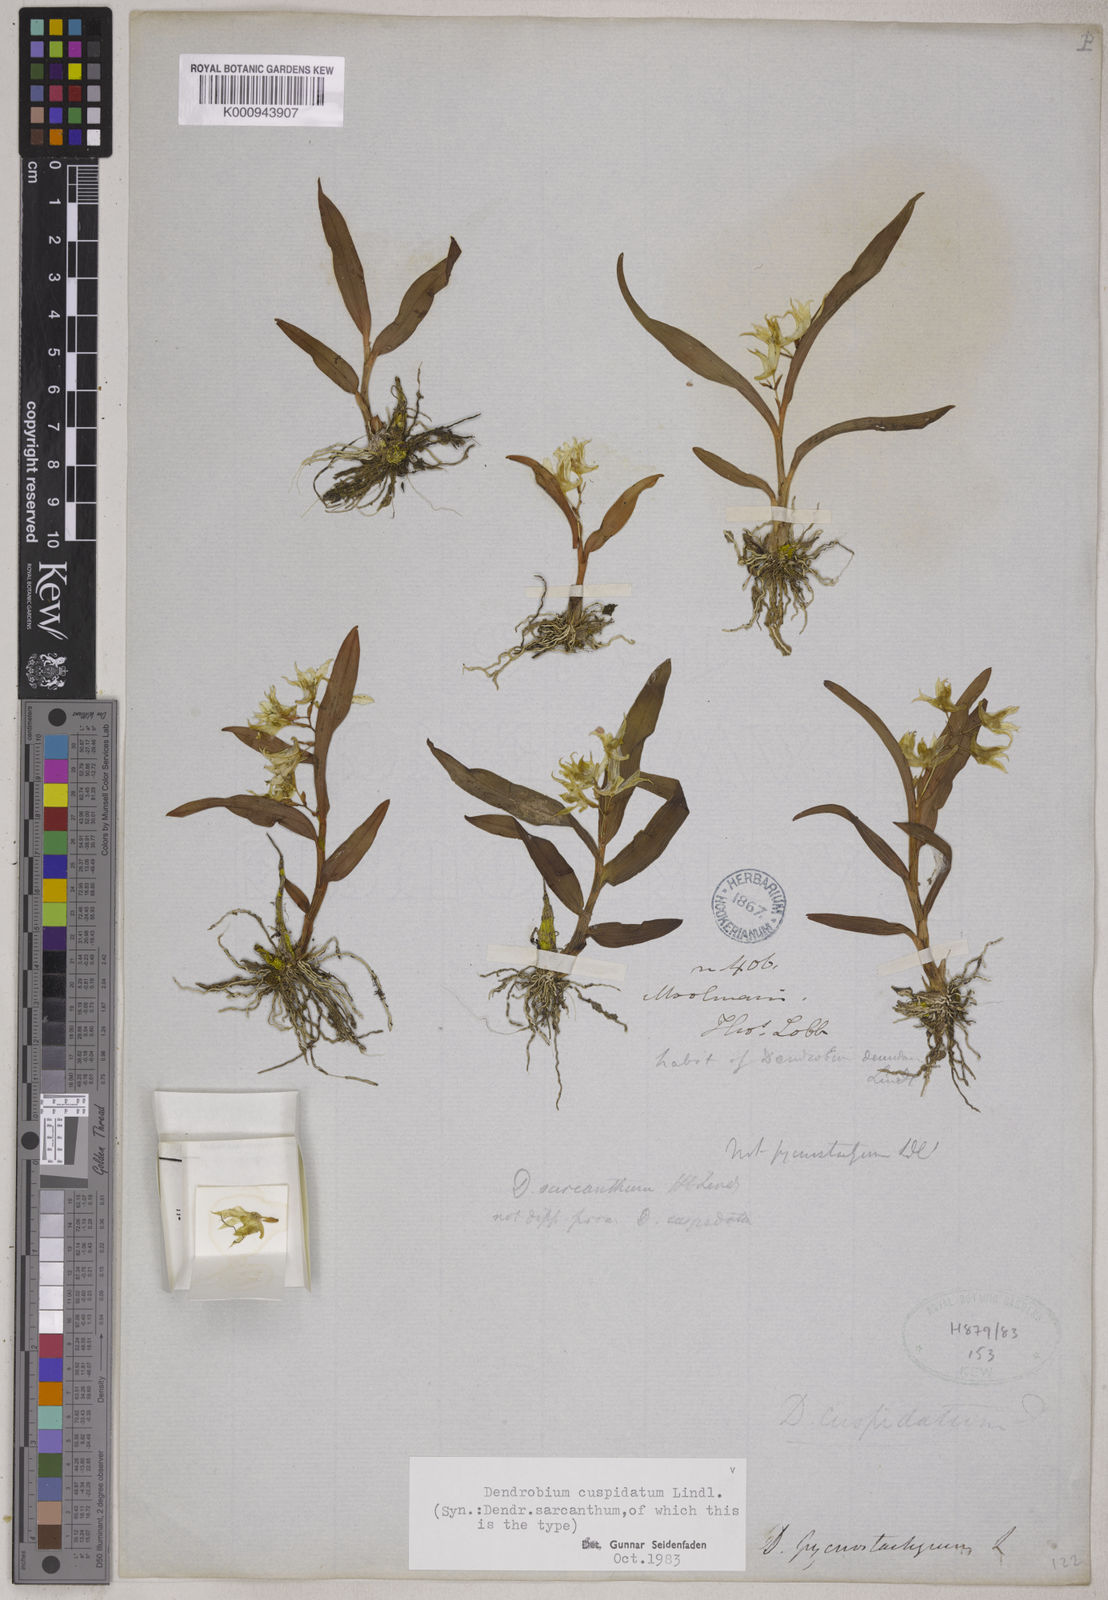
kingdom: Plantae
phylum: Tracheophyta
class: Liliopsida
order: Asparagales
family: Orchidaceae
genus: Dendrobium
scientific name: Dendrobium cuspidatum
